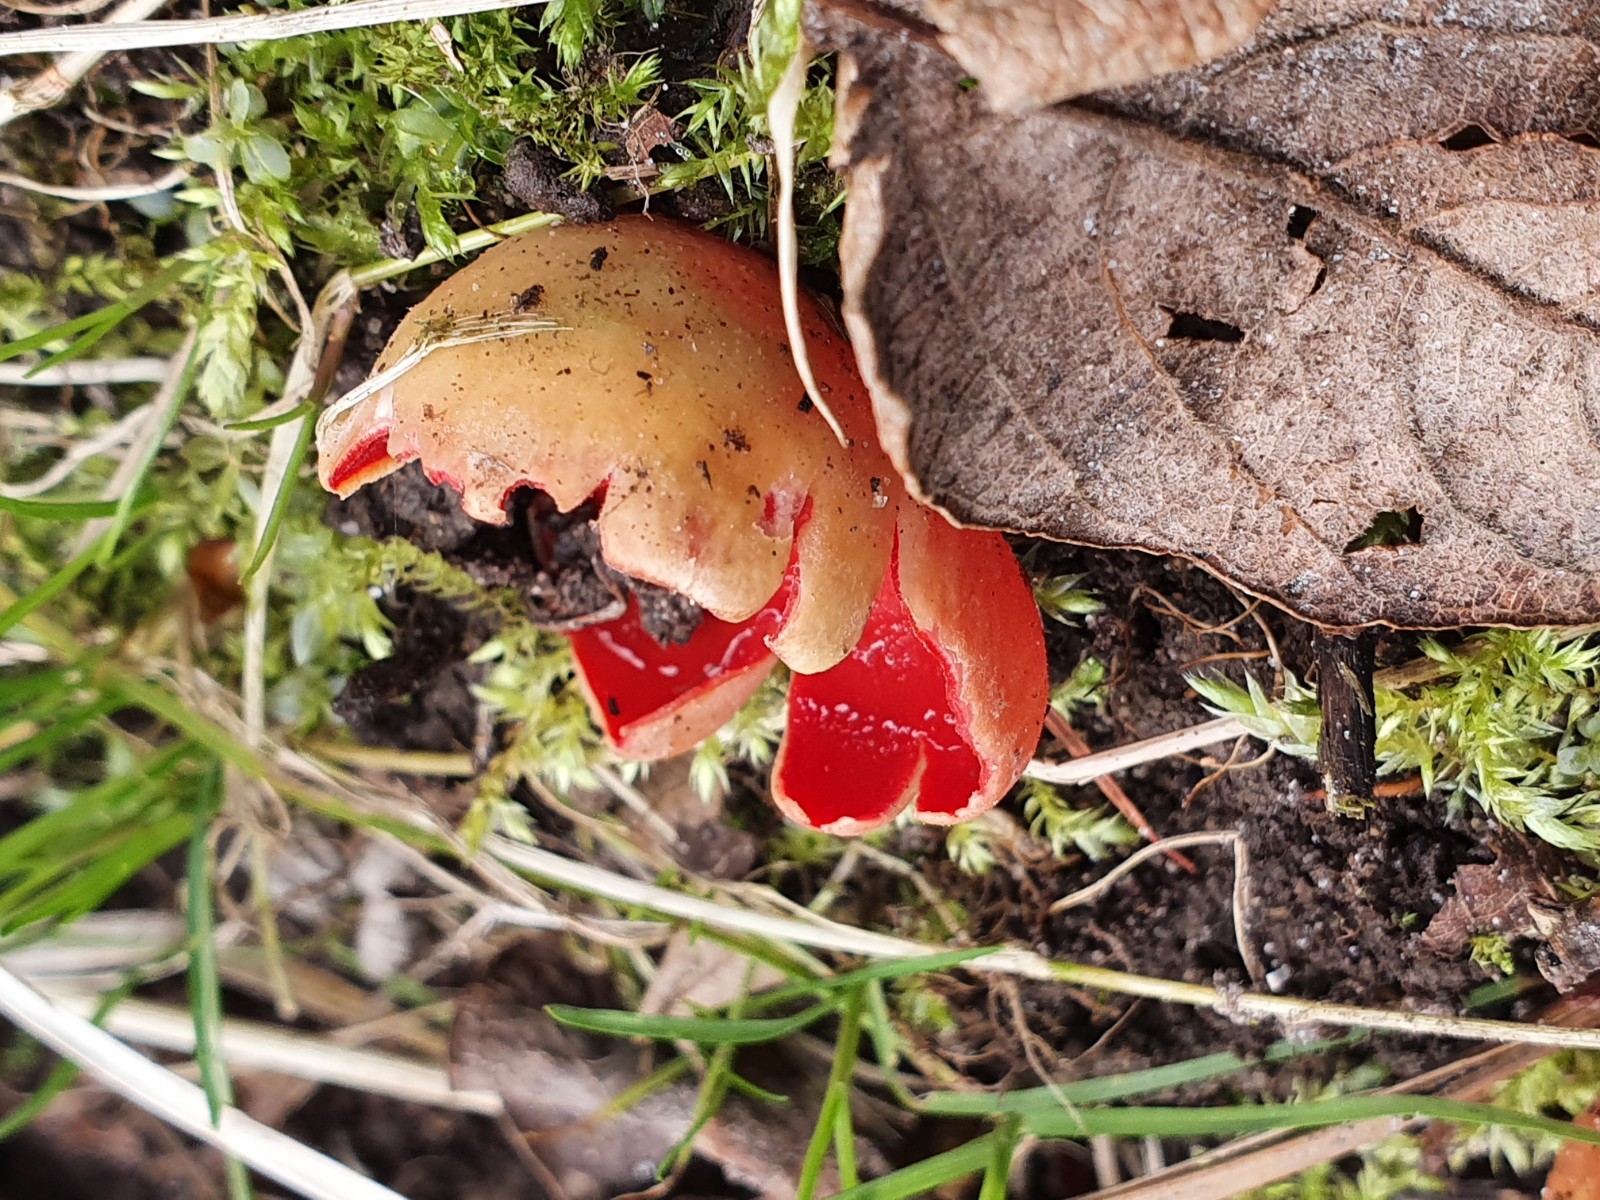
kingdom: Fungi
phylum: Ascomycota
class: Pezizomycetes
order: Pezizales
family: Sarcoscyphaceae
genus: Sarcoscypha
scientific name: Sarcoscypha
